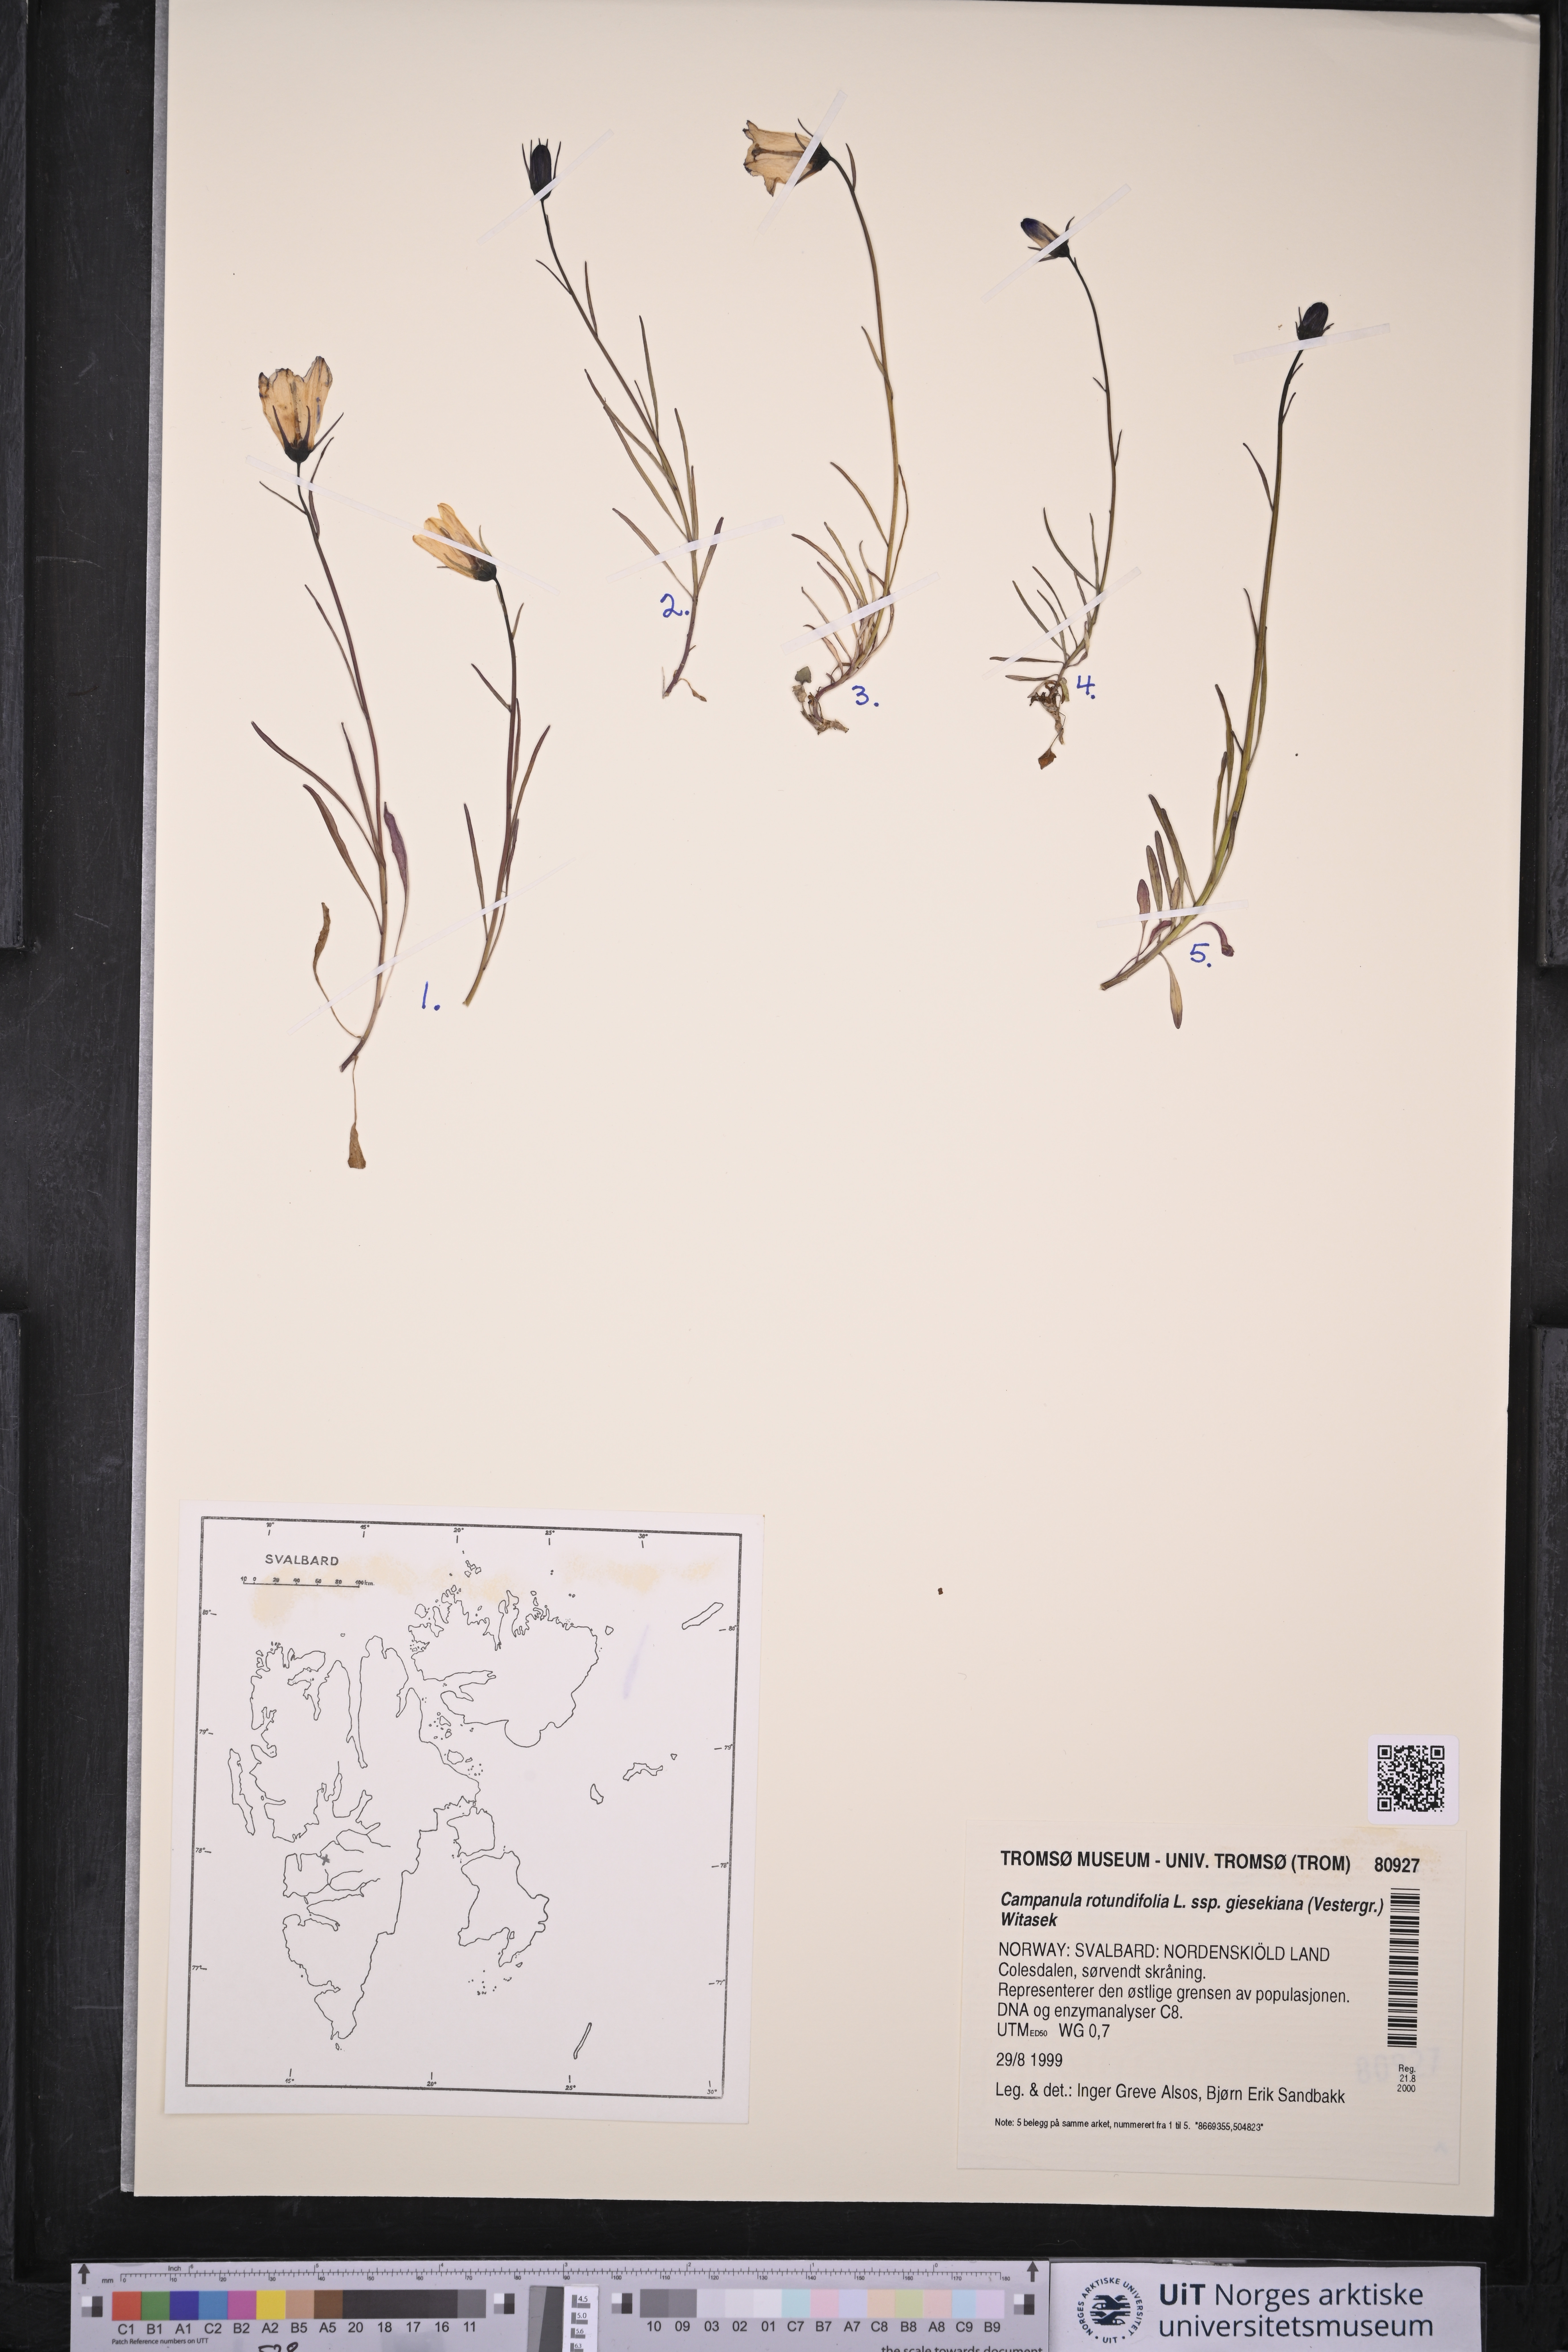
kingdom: Plantae
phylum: Tracheophyta
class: Magnoliopsida
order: Asterales
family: Campanulaceae
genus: Campanula
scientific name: Campanula rotundifolia
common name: Harebell
